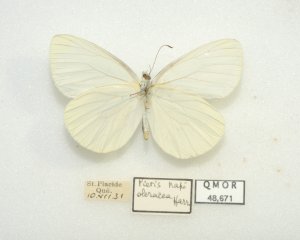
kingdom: Animalia
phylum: Arthropoda
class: Insecta
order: Lepidoptera
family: Pieridae
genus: Pieris
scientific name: Pieris oleracea
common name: Mustard White
